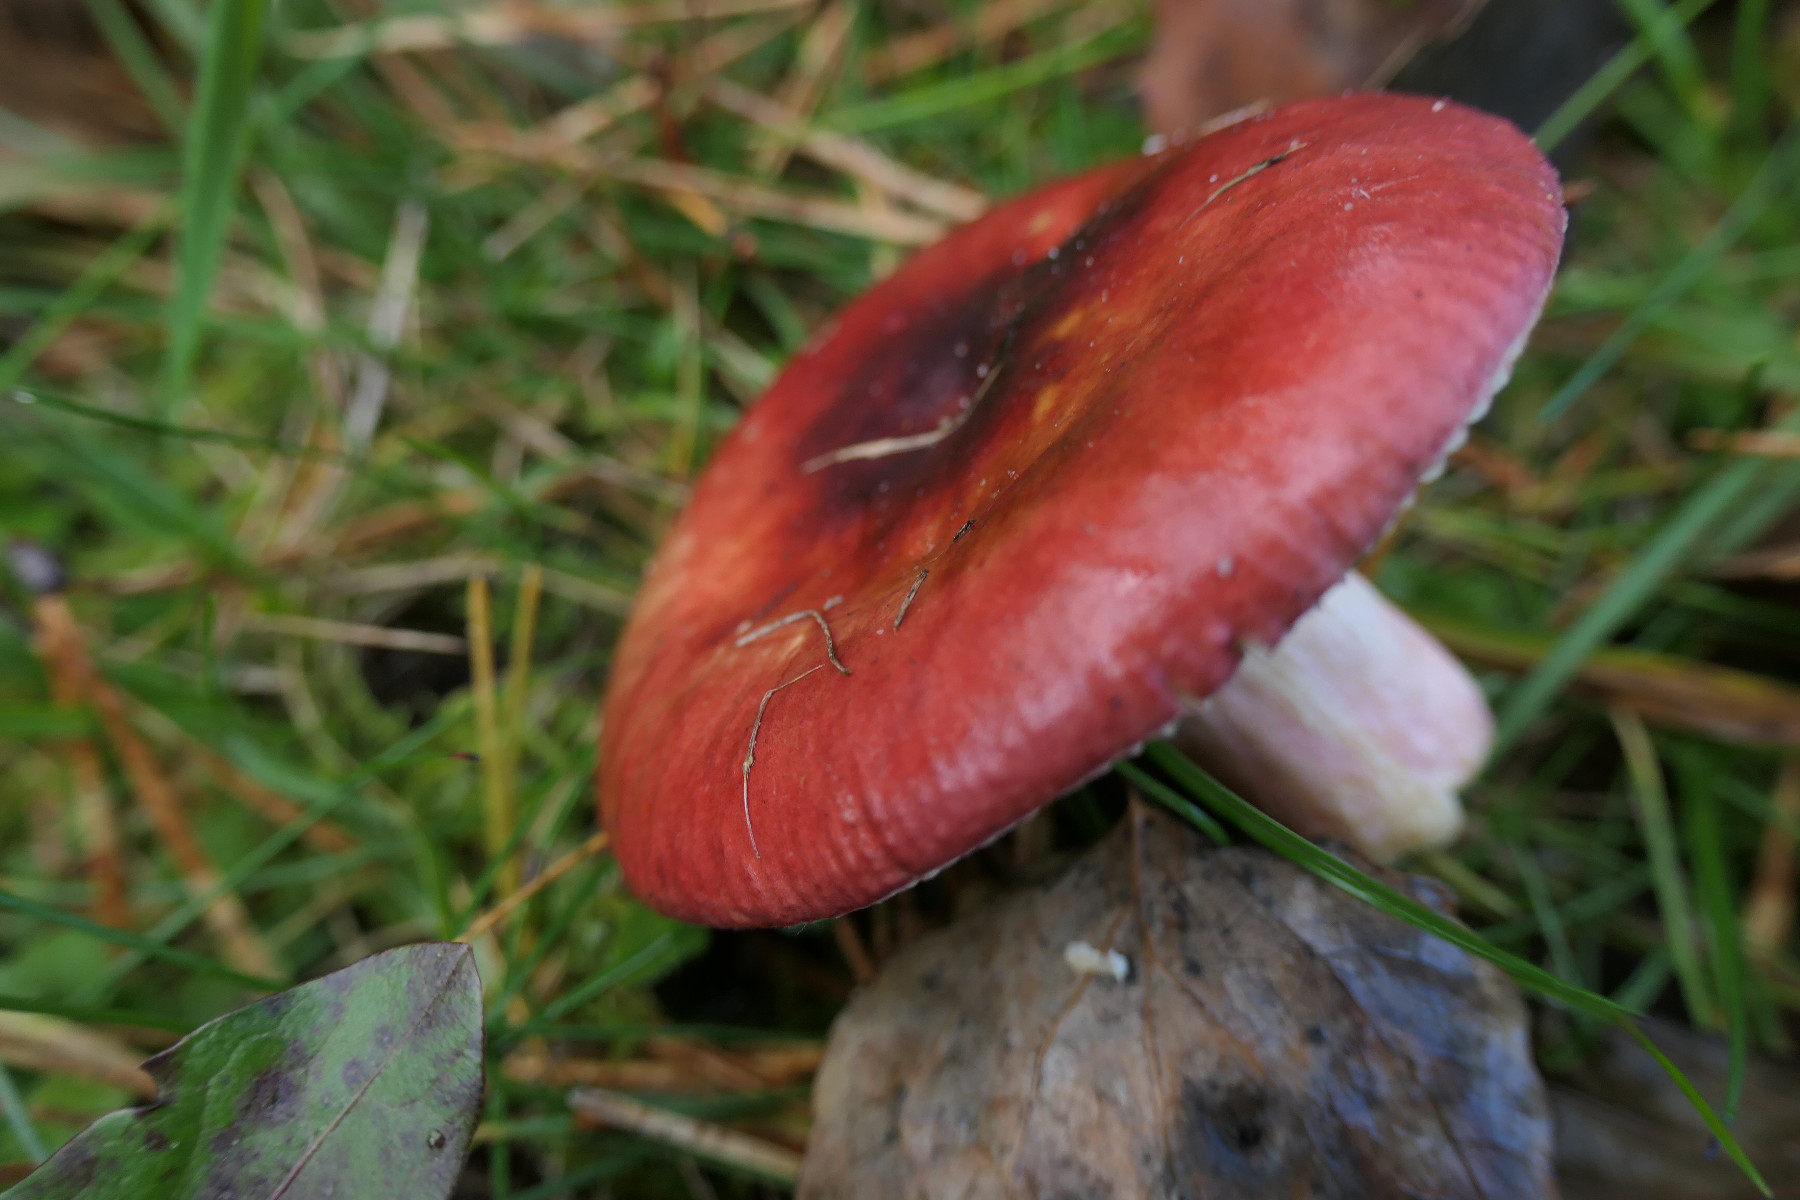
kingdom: Fungi
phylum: Basidiomycota
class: Agaricomycetes
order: Russulales
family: Russulaceae
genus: Russula
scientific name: Russula xerampelina
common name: hummer-skørhat
